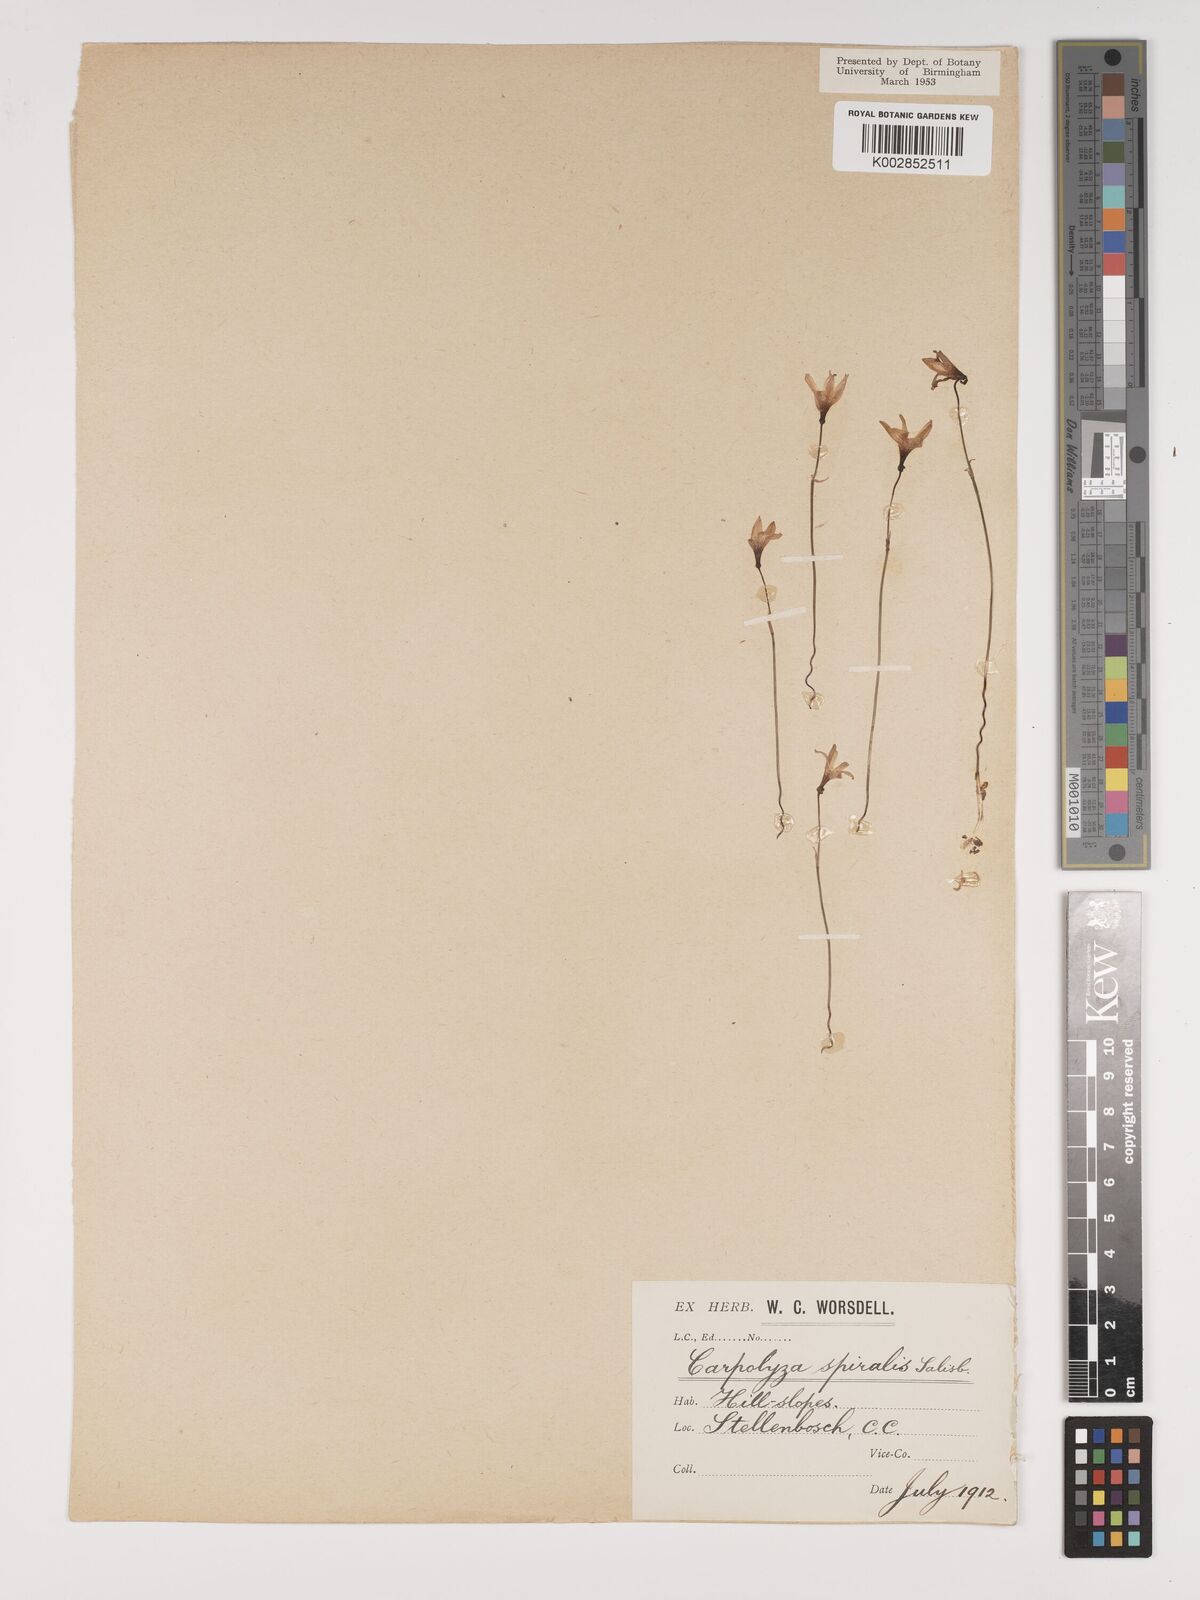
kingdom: Plantae
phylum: Tracheophyta
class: Liliopsida
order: Asparagales
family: Amaryllidaceae
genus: Strumaria
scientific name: Strumaria spiralis
